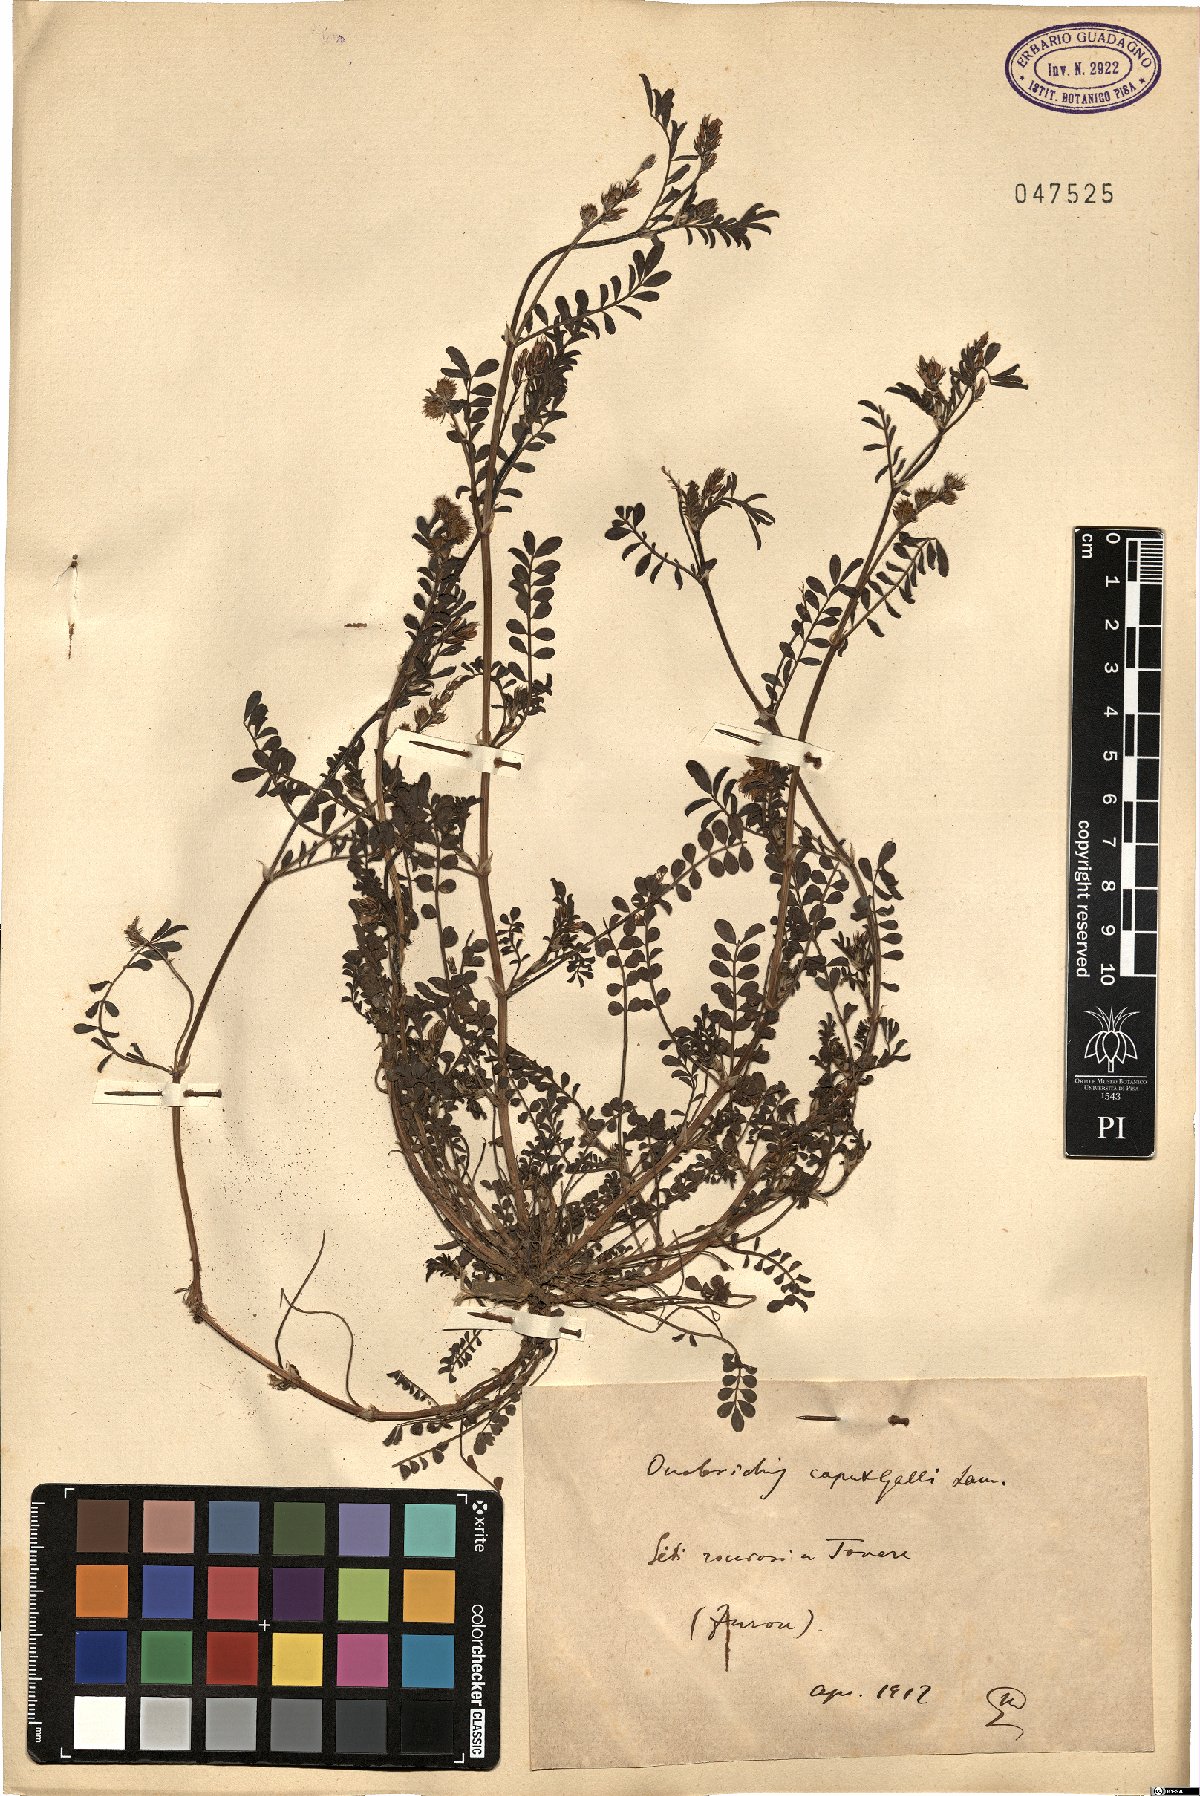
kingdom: Plantae
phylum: Tracheophyta
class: Magnoliopsida
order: Fabales
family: Fabaceae
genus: Onobrychis
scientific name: Onobrychis caput-galli
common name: Cockscomb sainfoin
